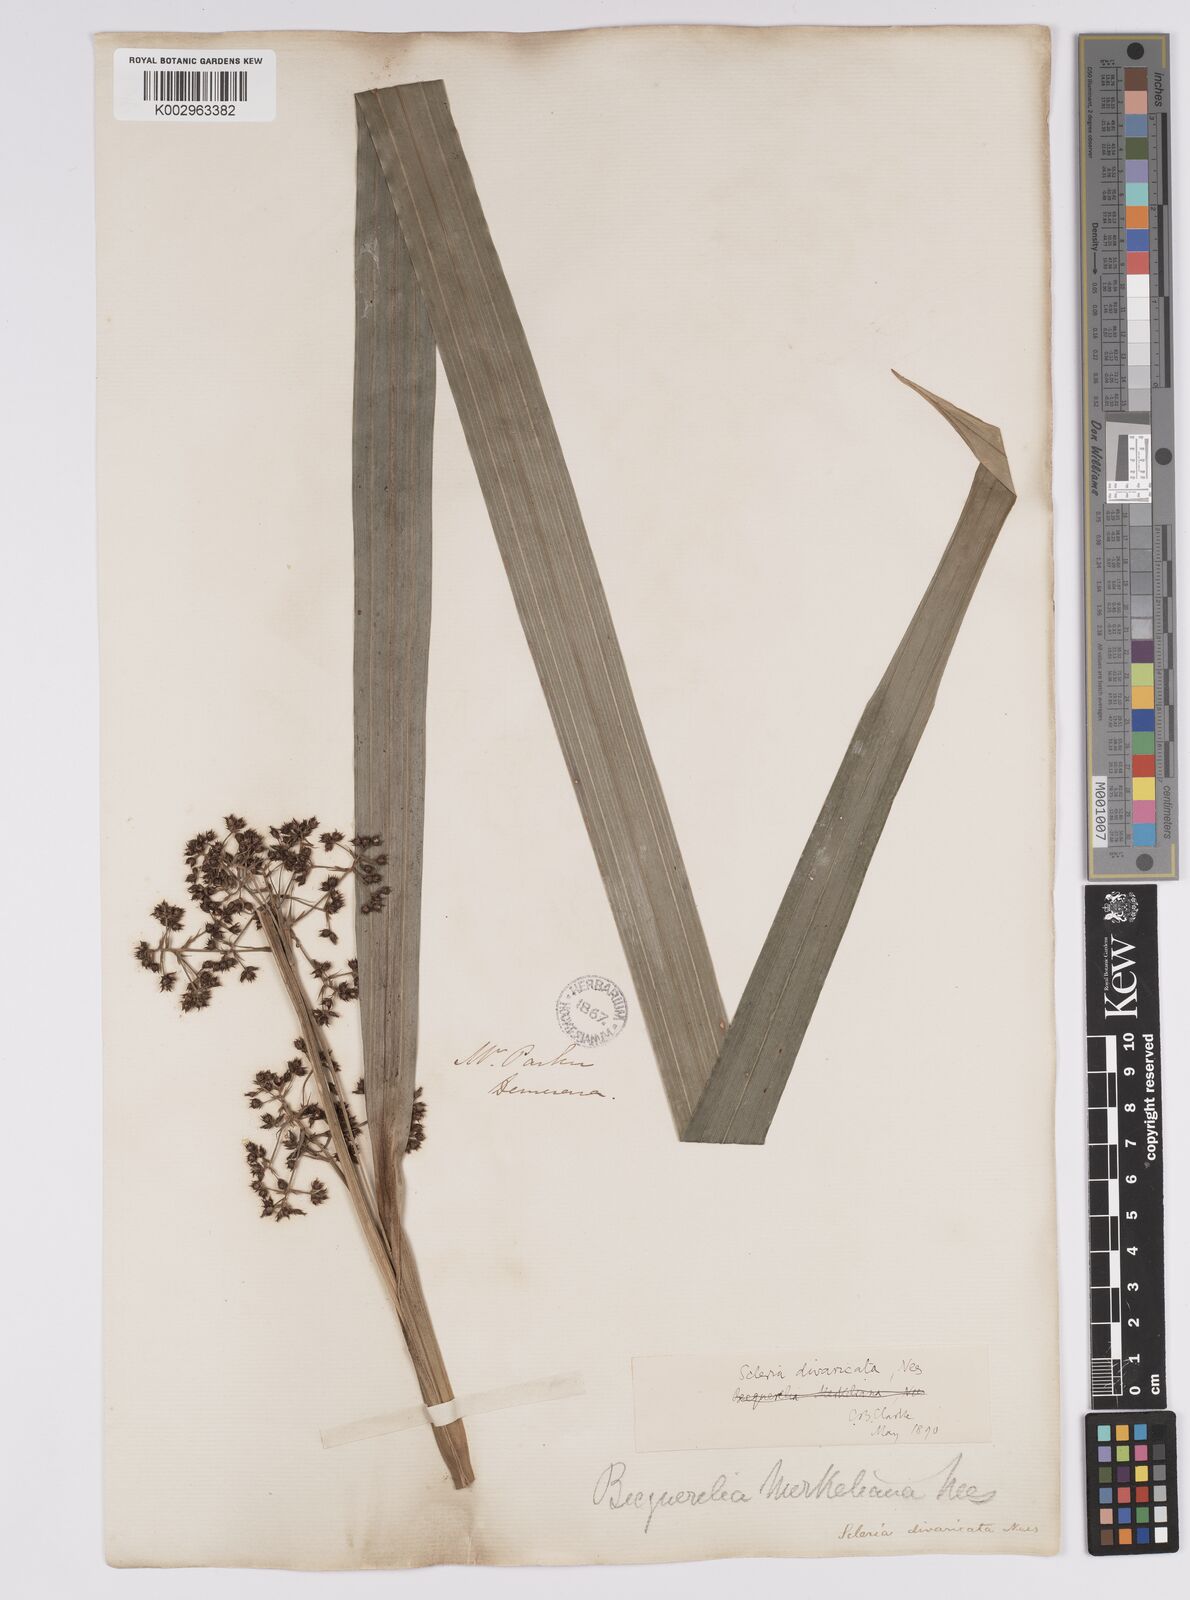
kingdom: Plantae
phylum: Tracheophyta
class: Liliopsida
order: Poales
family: Cyperaceae
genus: Becquerelia
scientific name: Becquerelia merkeliana
